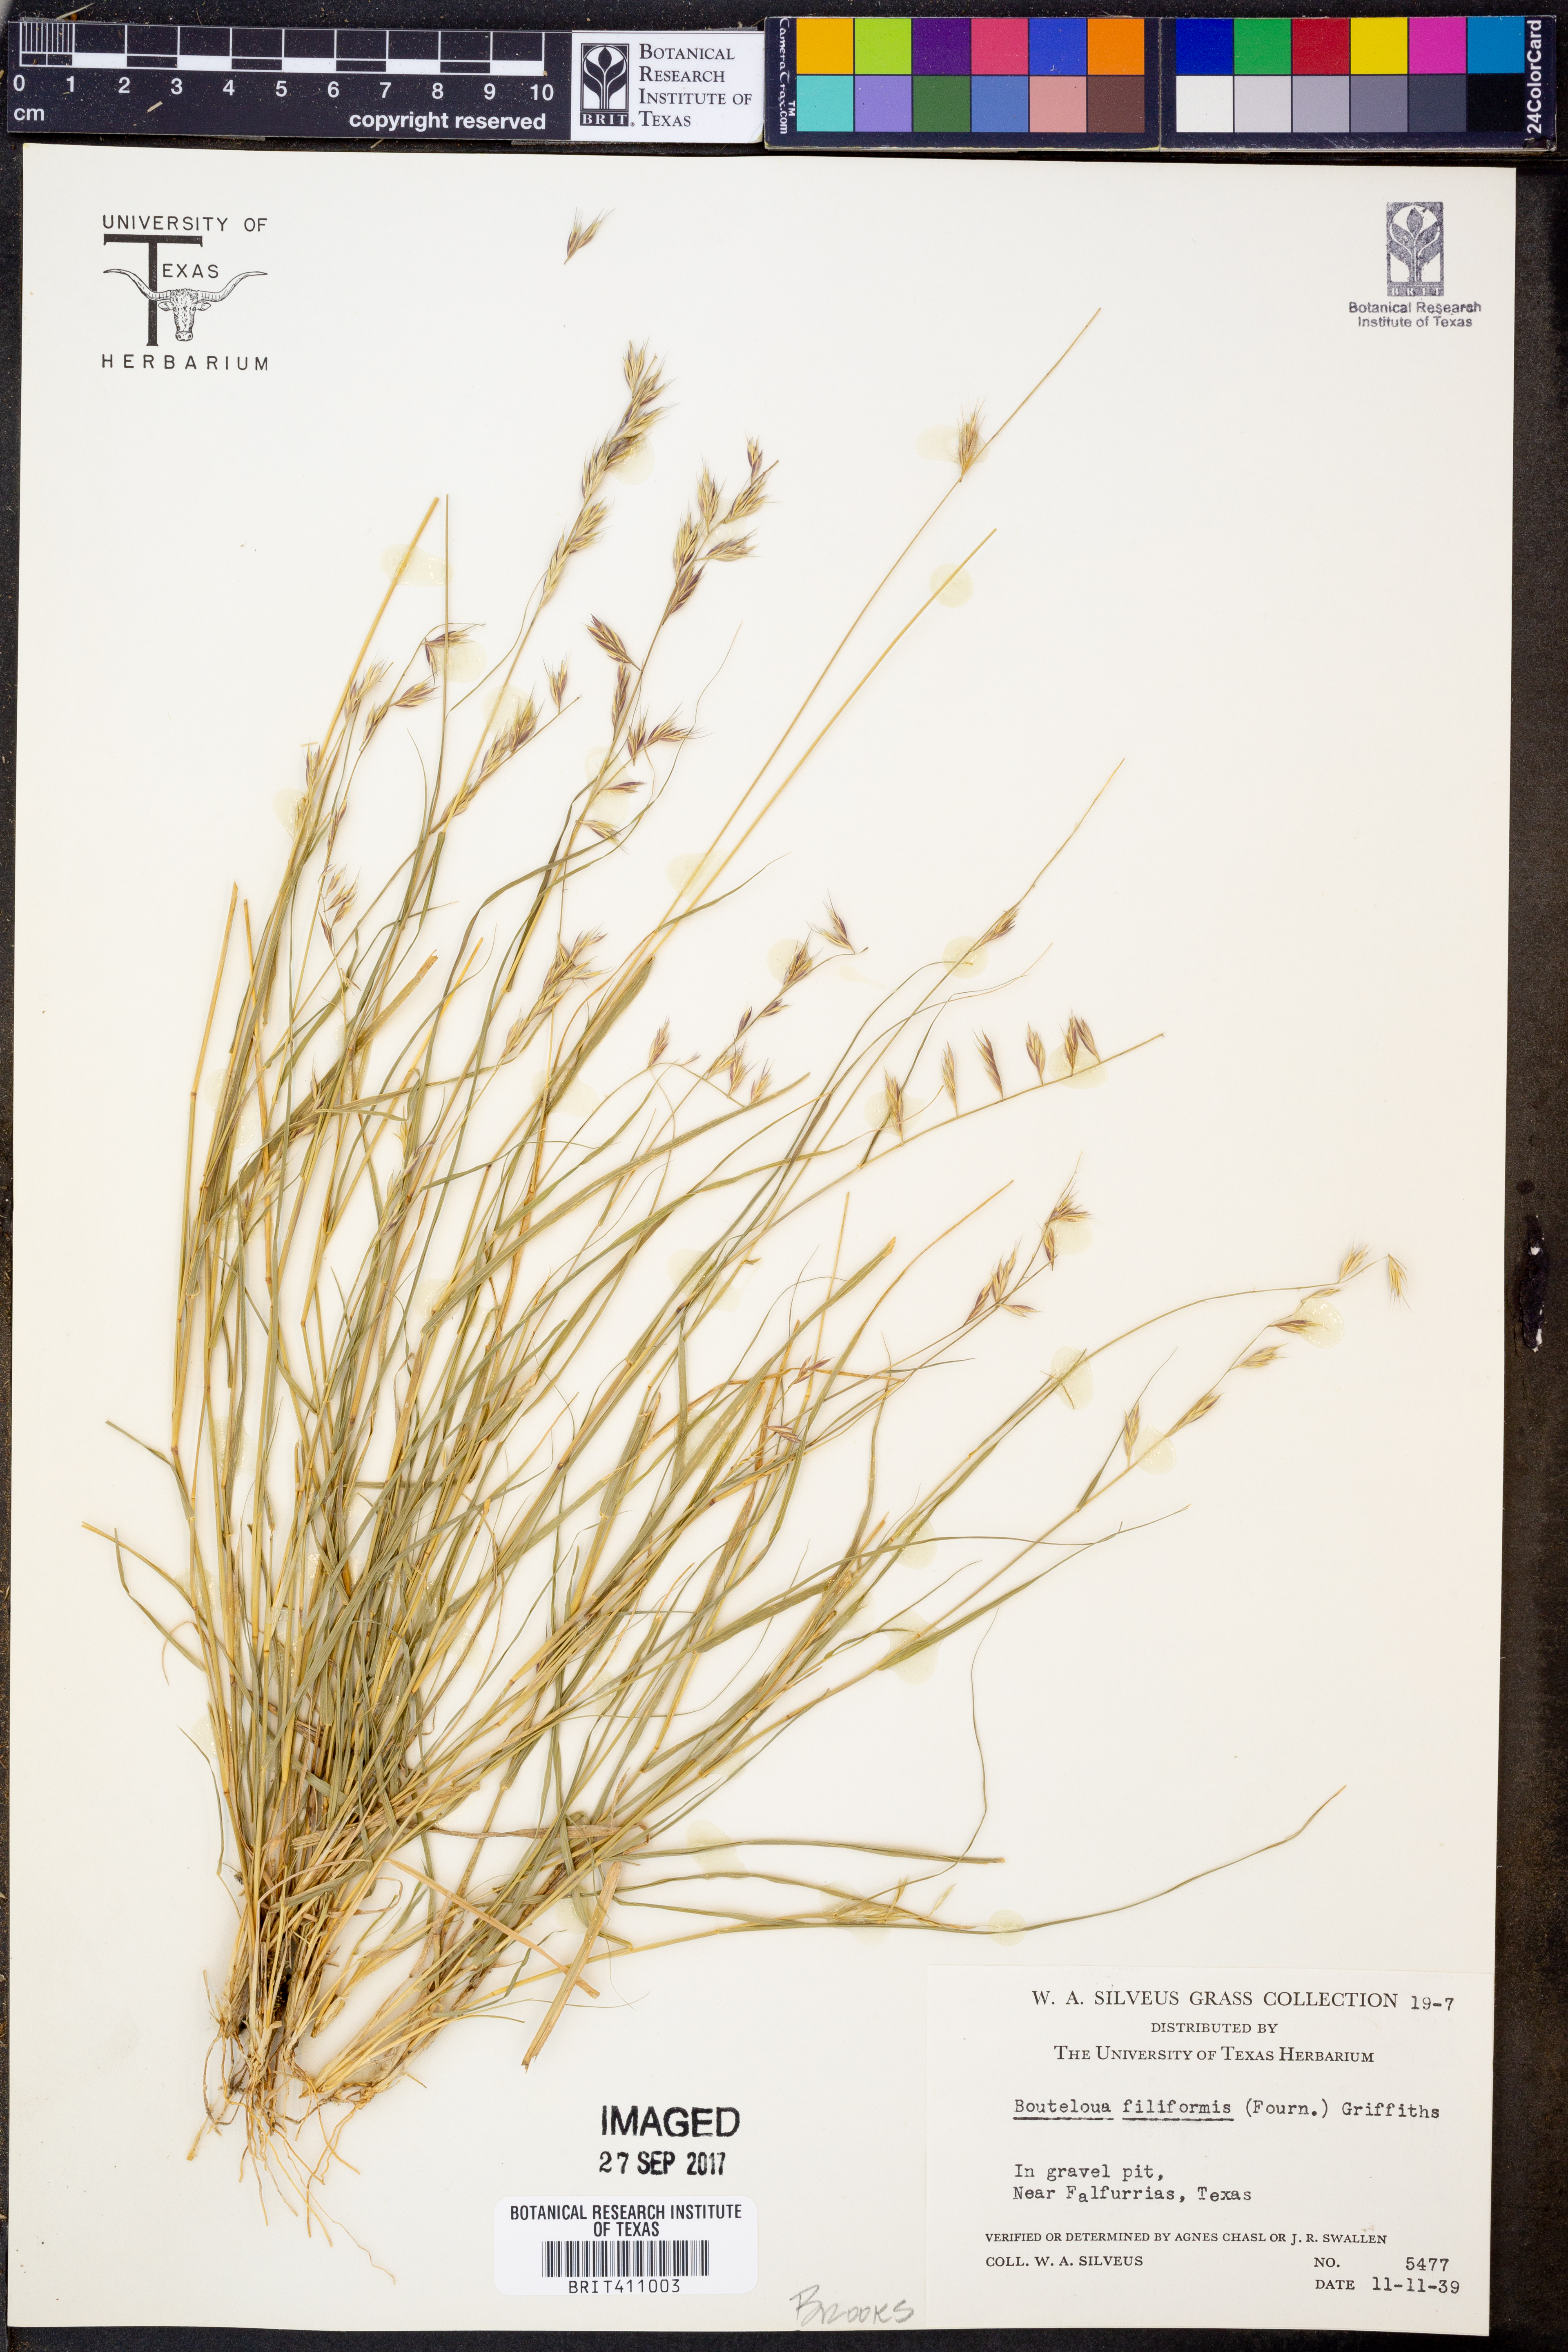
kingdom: Plantae
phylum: Tracheophyta
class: Liliopsida
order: Poales
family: Poaceae
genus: Bouteloua
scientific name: Bouteloua repens
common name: Slender grama
